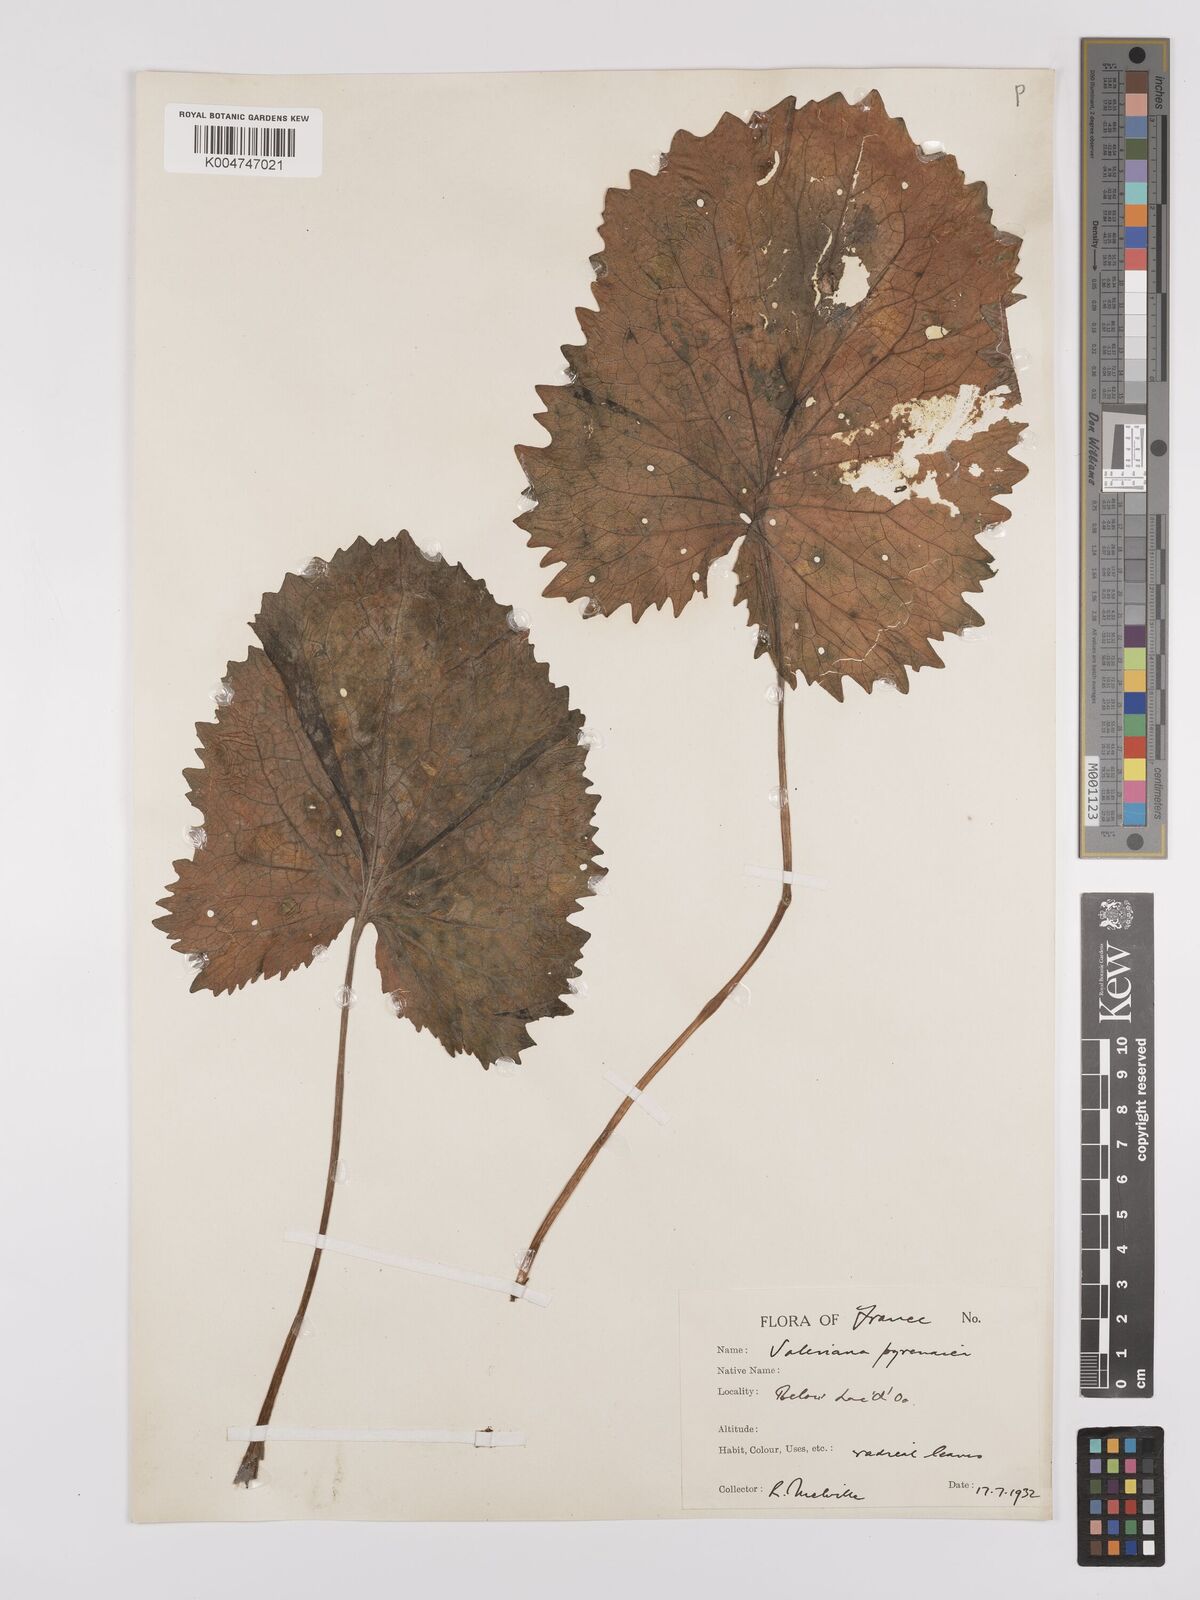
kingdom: Plantae
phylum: Tracheophyta
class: Magnoliopsida
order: Dipsacales
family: Caprifoliaceae
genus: Valeriana
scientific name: Valeriana pyrenaica
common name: Pyrenean valerian
